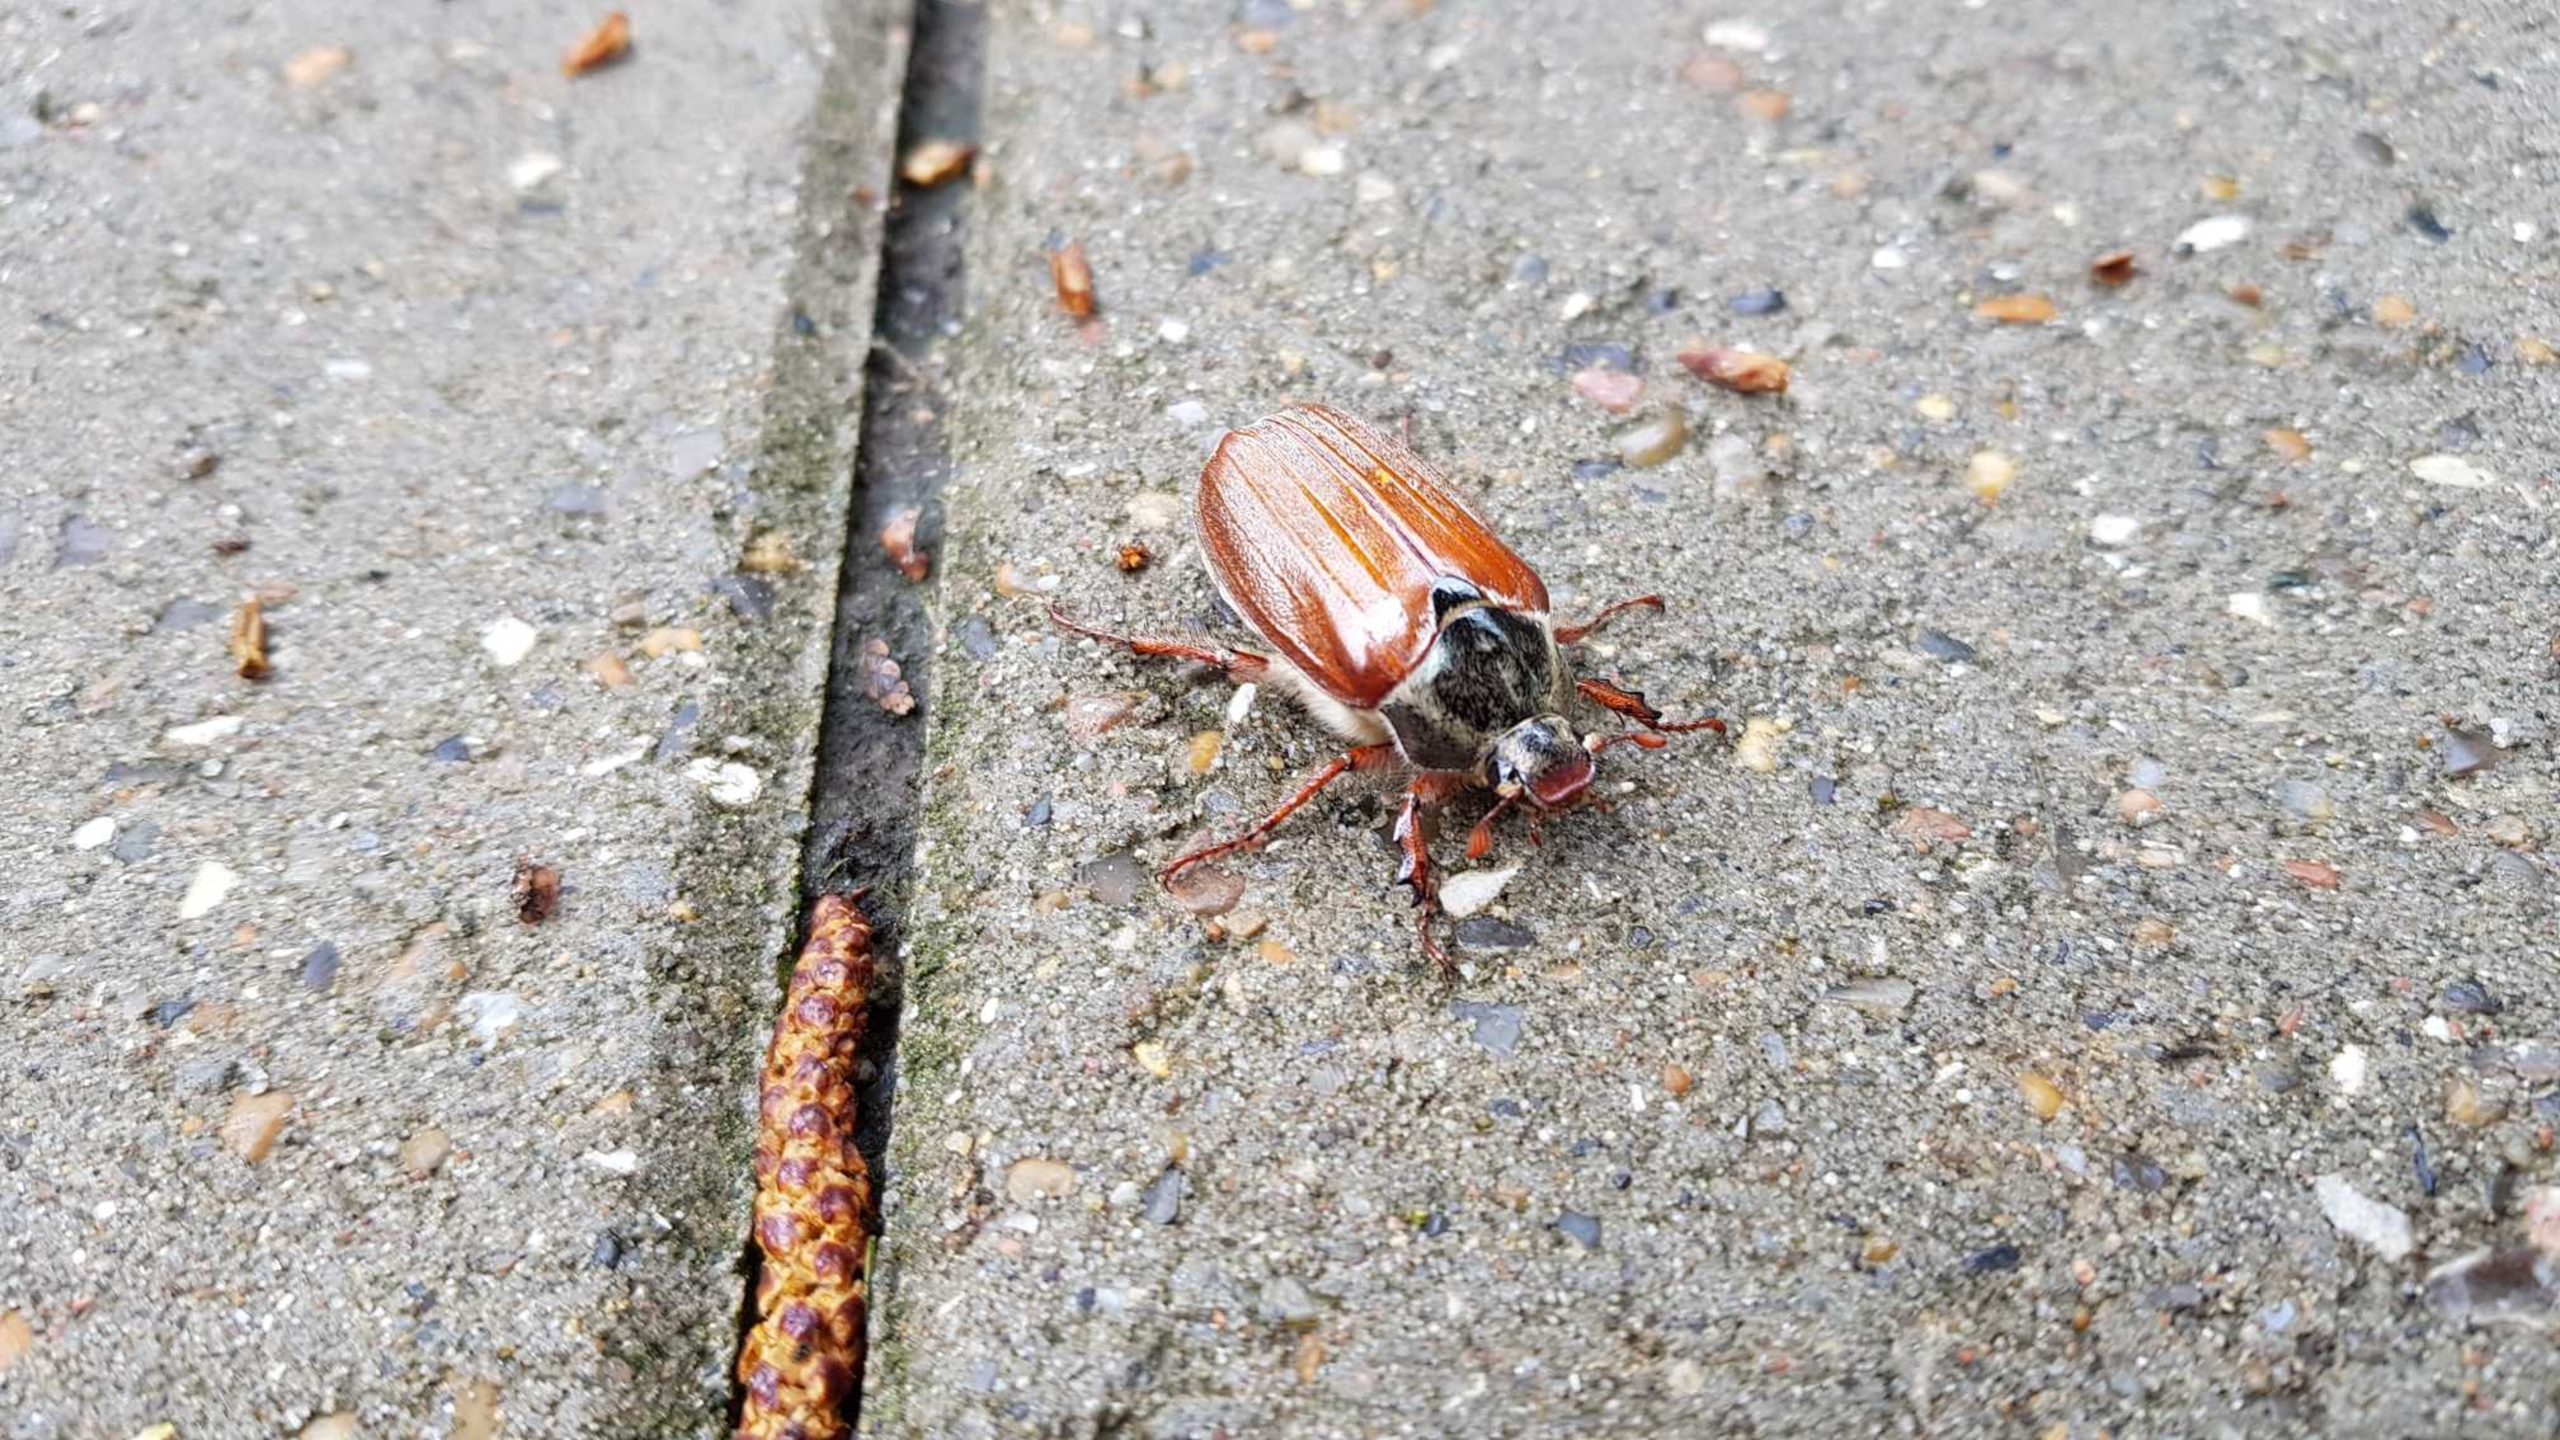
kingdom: Animalia
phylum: Arthropoda
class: Insecta
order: Coleoptera
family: Scarabaeidae
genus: Melolontha
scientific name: Melolontha melolontha
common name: Almindelig oldenborre
